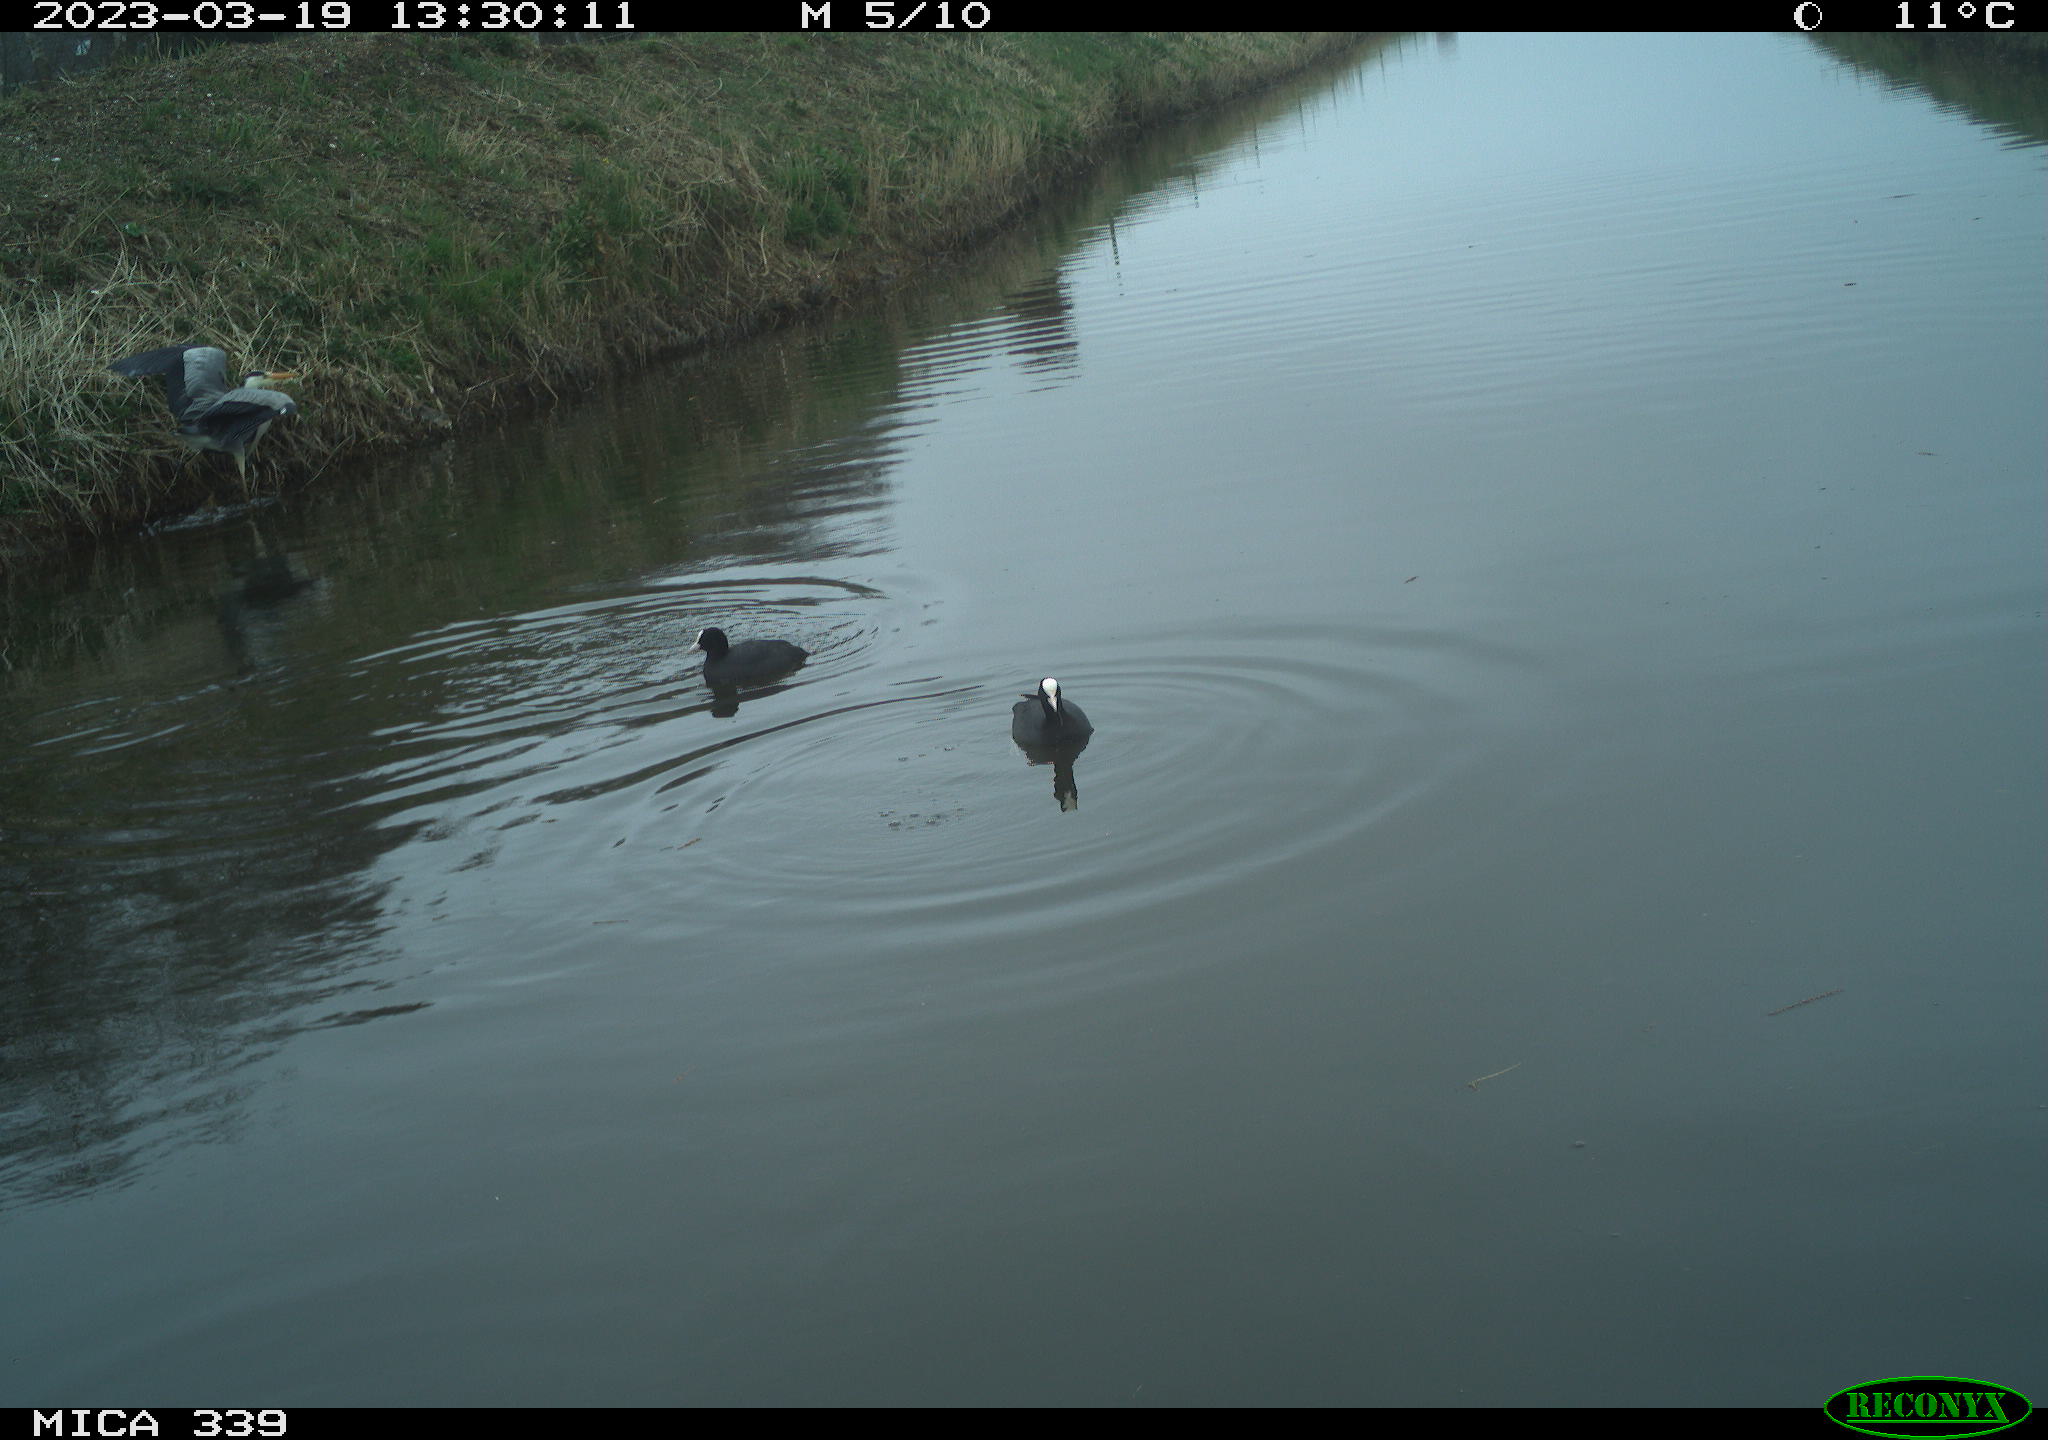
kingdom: Animalia
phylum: Chordata
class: Aves
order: Gruiformes
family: Rallidae
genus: Fulica
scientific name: Fulica atra
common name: Eurasian coot
